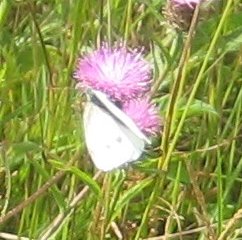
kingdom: Animalia
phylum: Arthropoda
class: Insecta
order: Lepidoptera
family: Pieridae
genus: Pieris
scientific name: Pieris rapae
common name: Cabbage White
